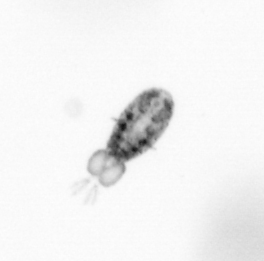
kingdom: Animalia
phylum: Arthropoda
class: Copepoda
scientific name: Copepoda
